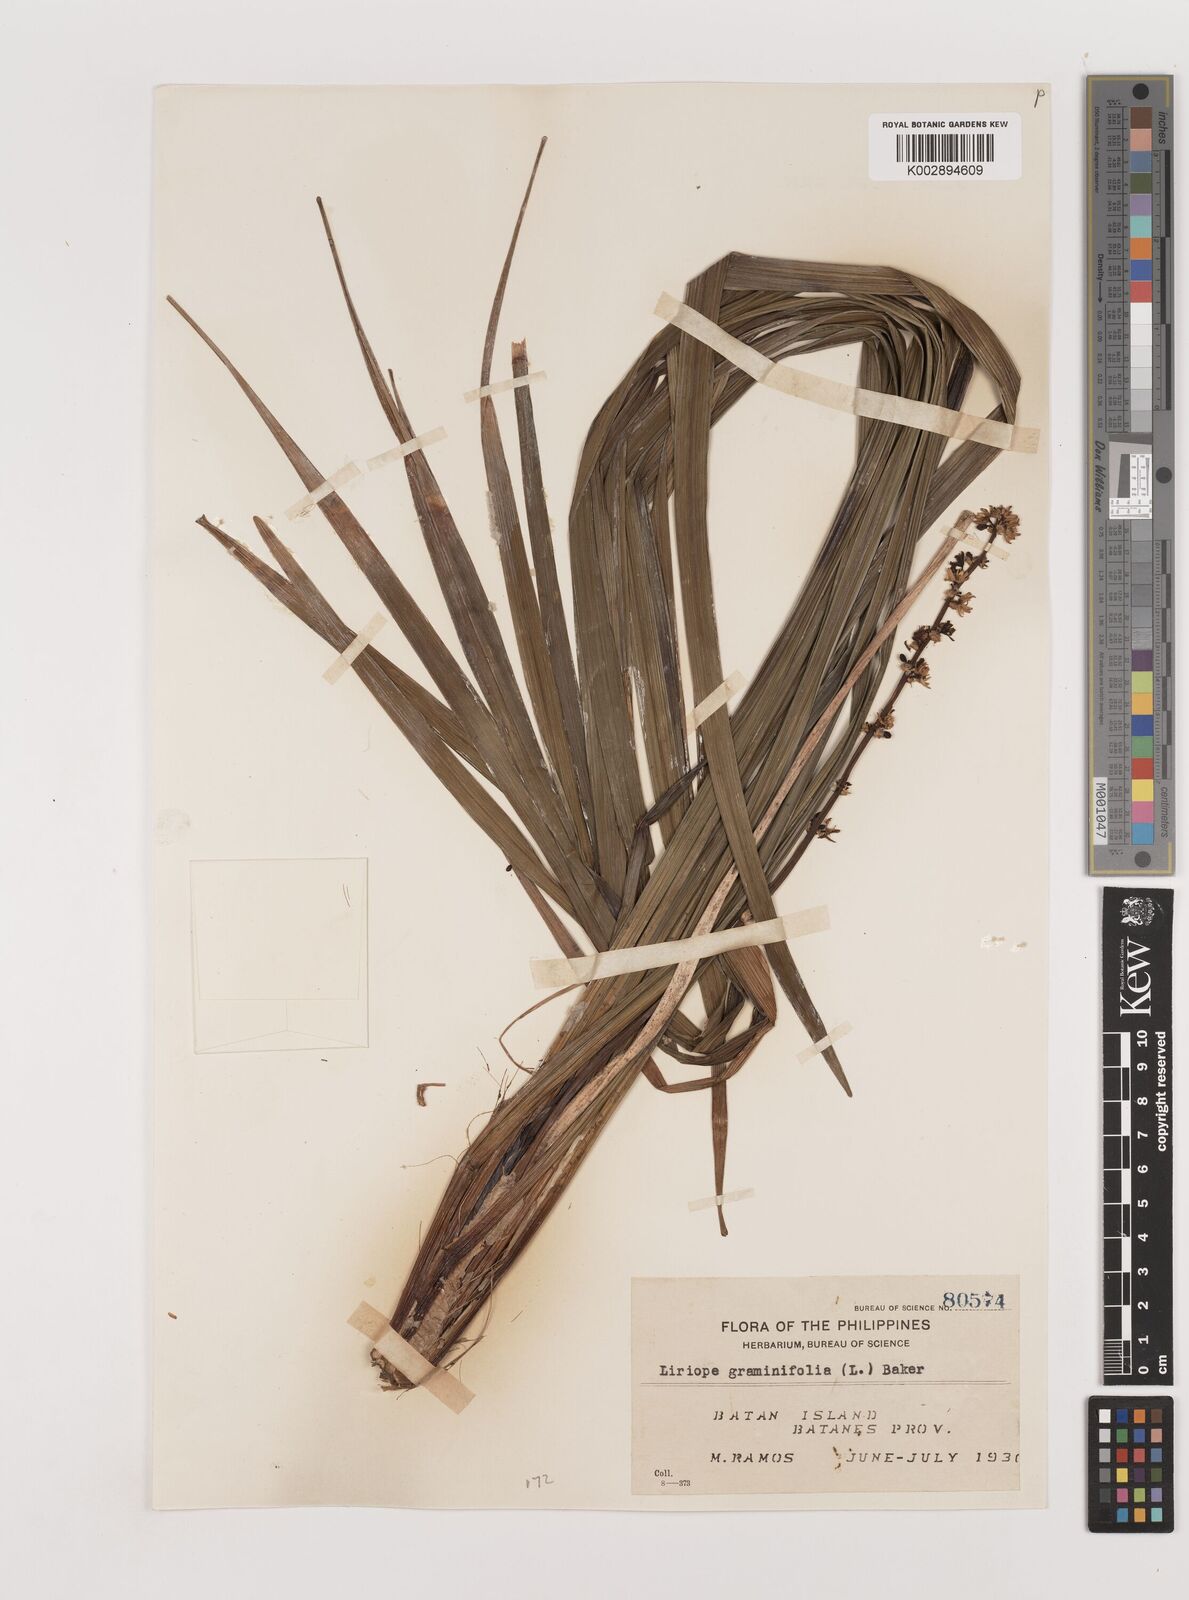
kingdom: Plantae
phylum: Tracheophyta
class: Liliopsida
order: Asparagales
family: Asparagaceae
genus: Liriope
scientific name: Liriope graminifolia
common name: Lilyturf
